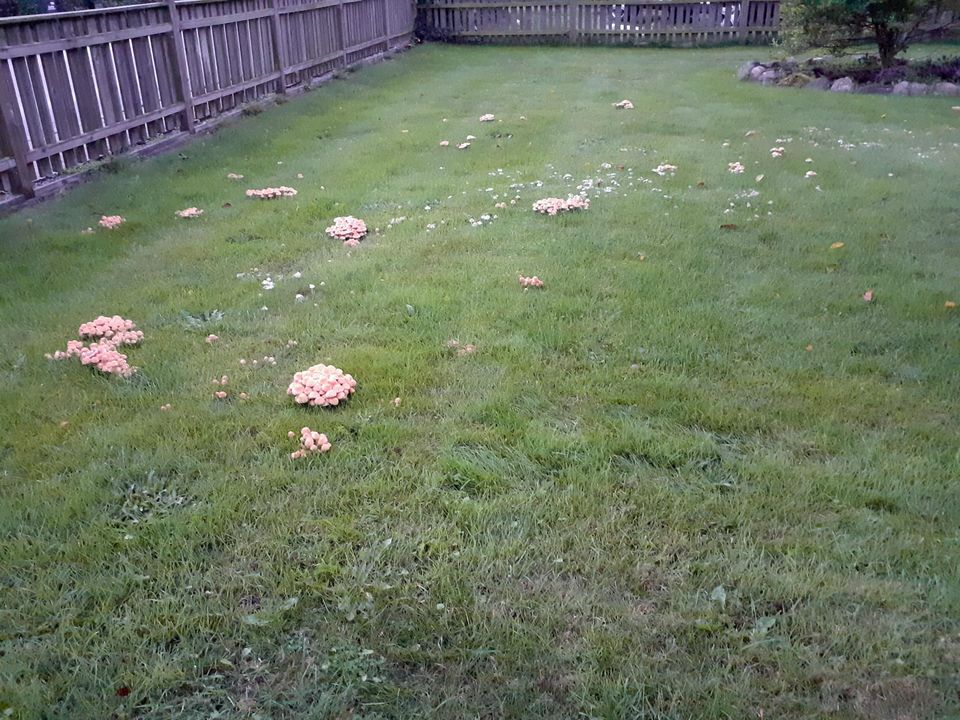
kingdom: Fungi
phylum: Basidiomycota
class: Agaricomycetes
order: Agaricales
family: Strophariaceae
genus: Hypholoma
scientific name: Hypholoma capnoides
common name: gran-svovlhat
